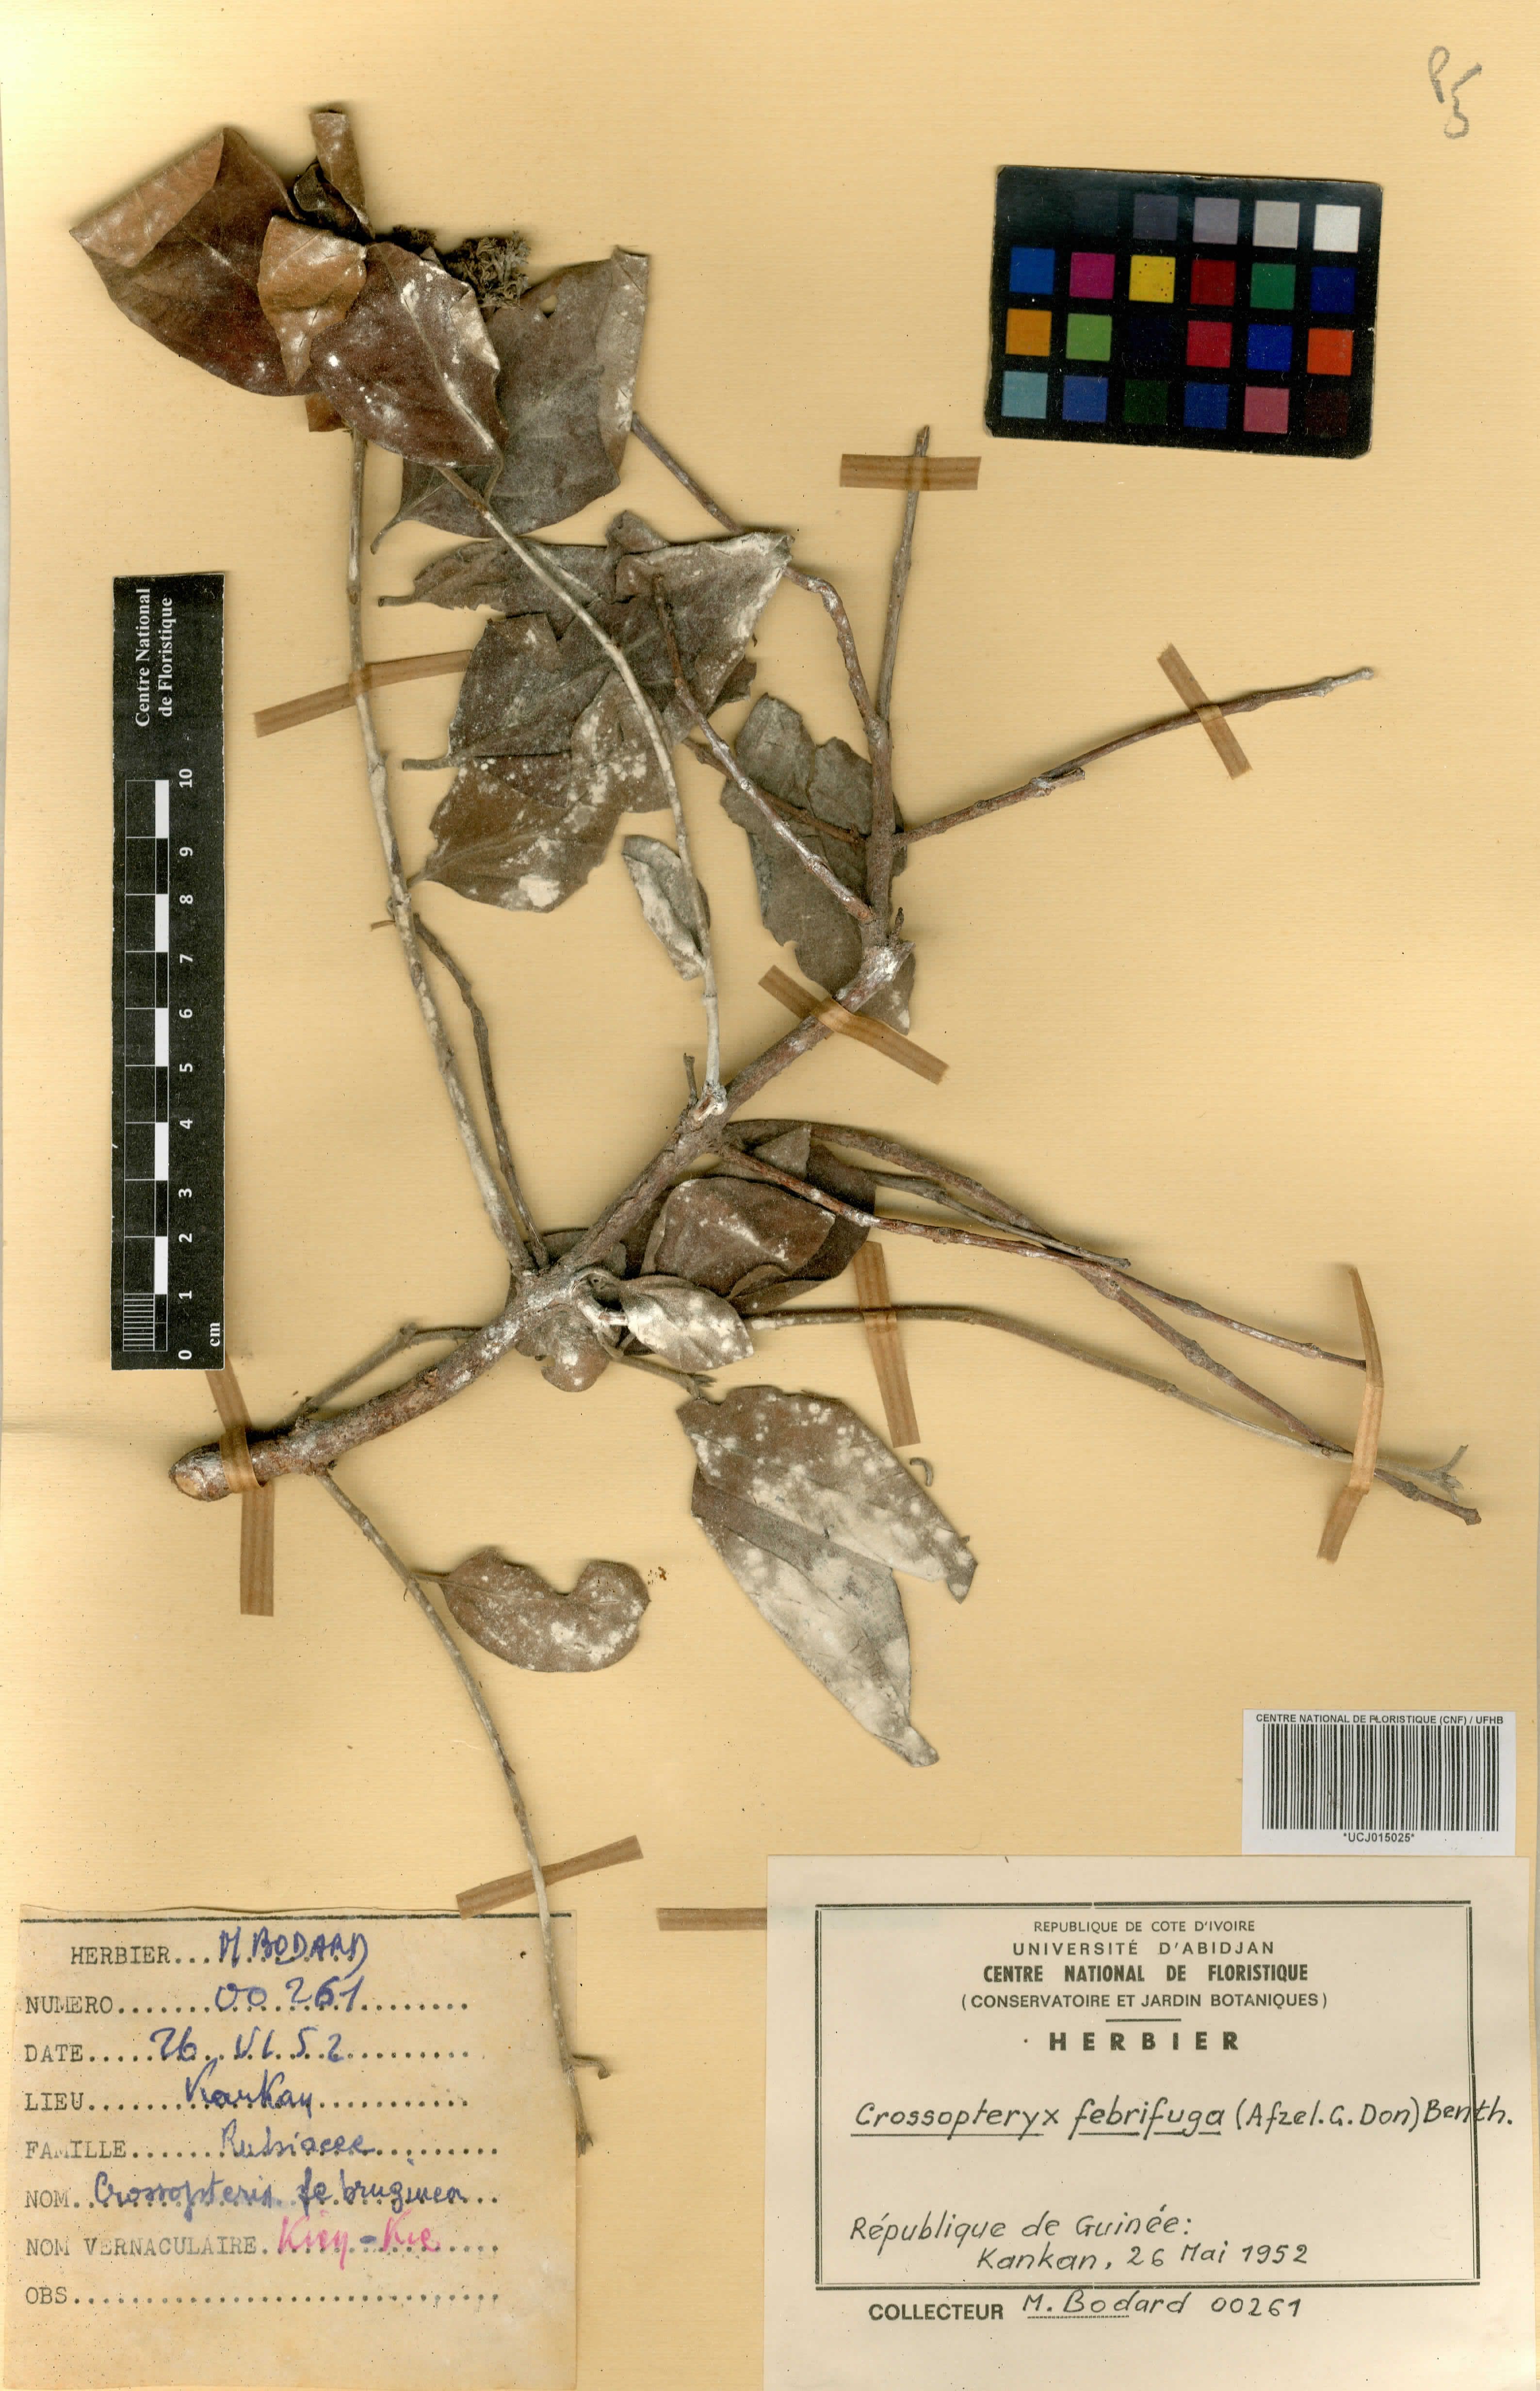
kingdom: Plantae
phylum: Tracheophyta
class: Magnoliopsida
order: Gentianales
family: Rubiaceae
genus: Crossopteryx
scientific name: Crossopteryx febrifuga
